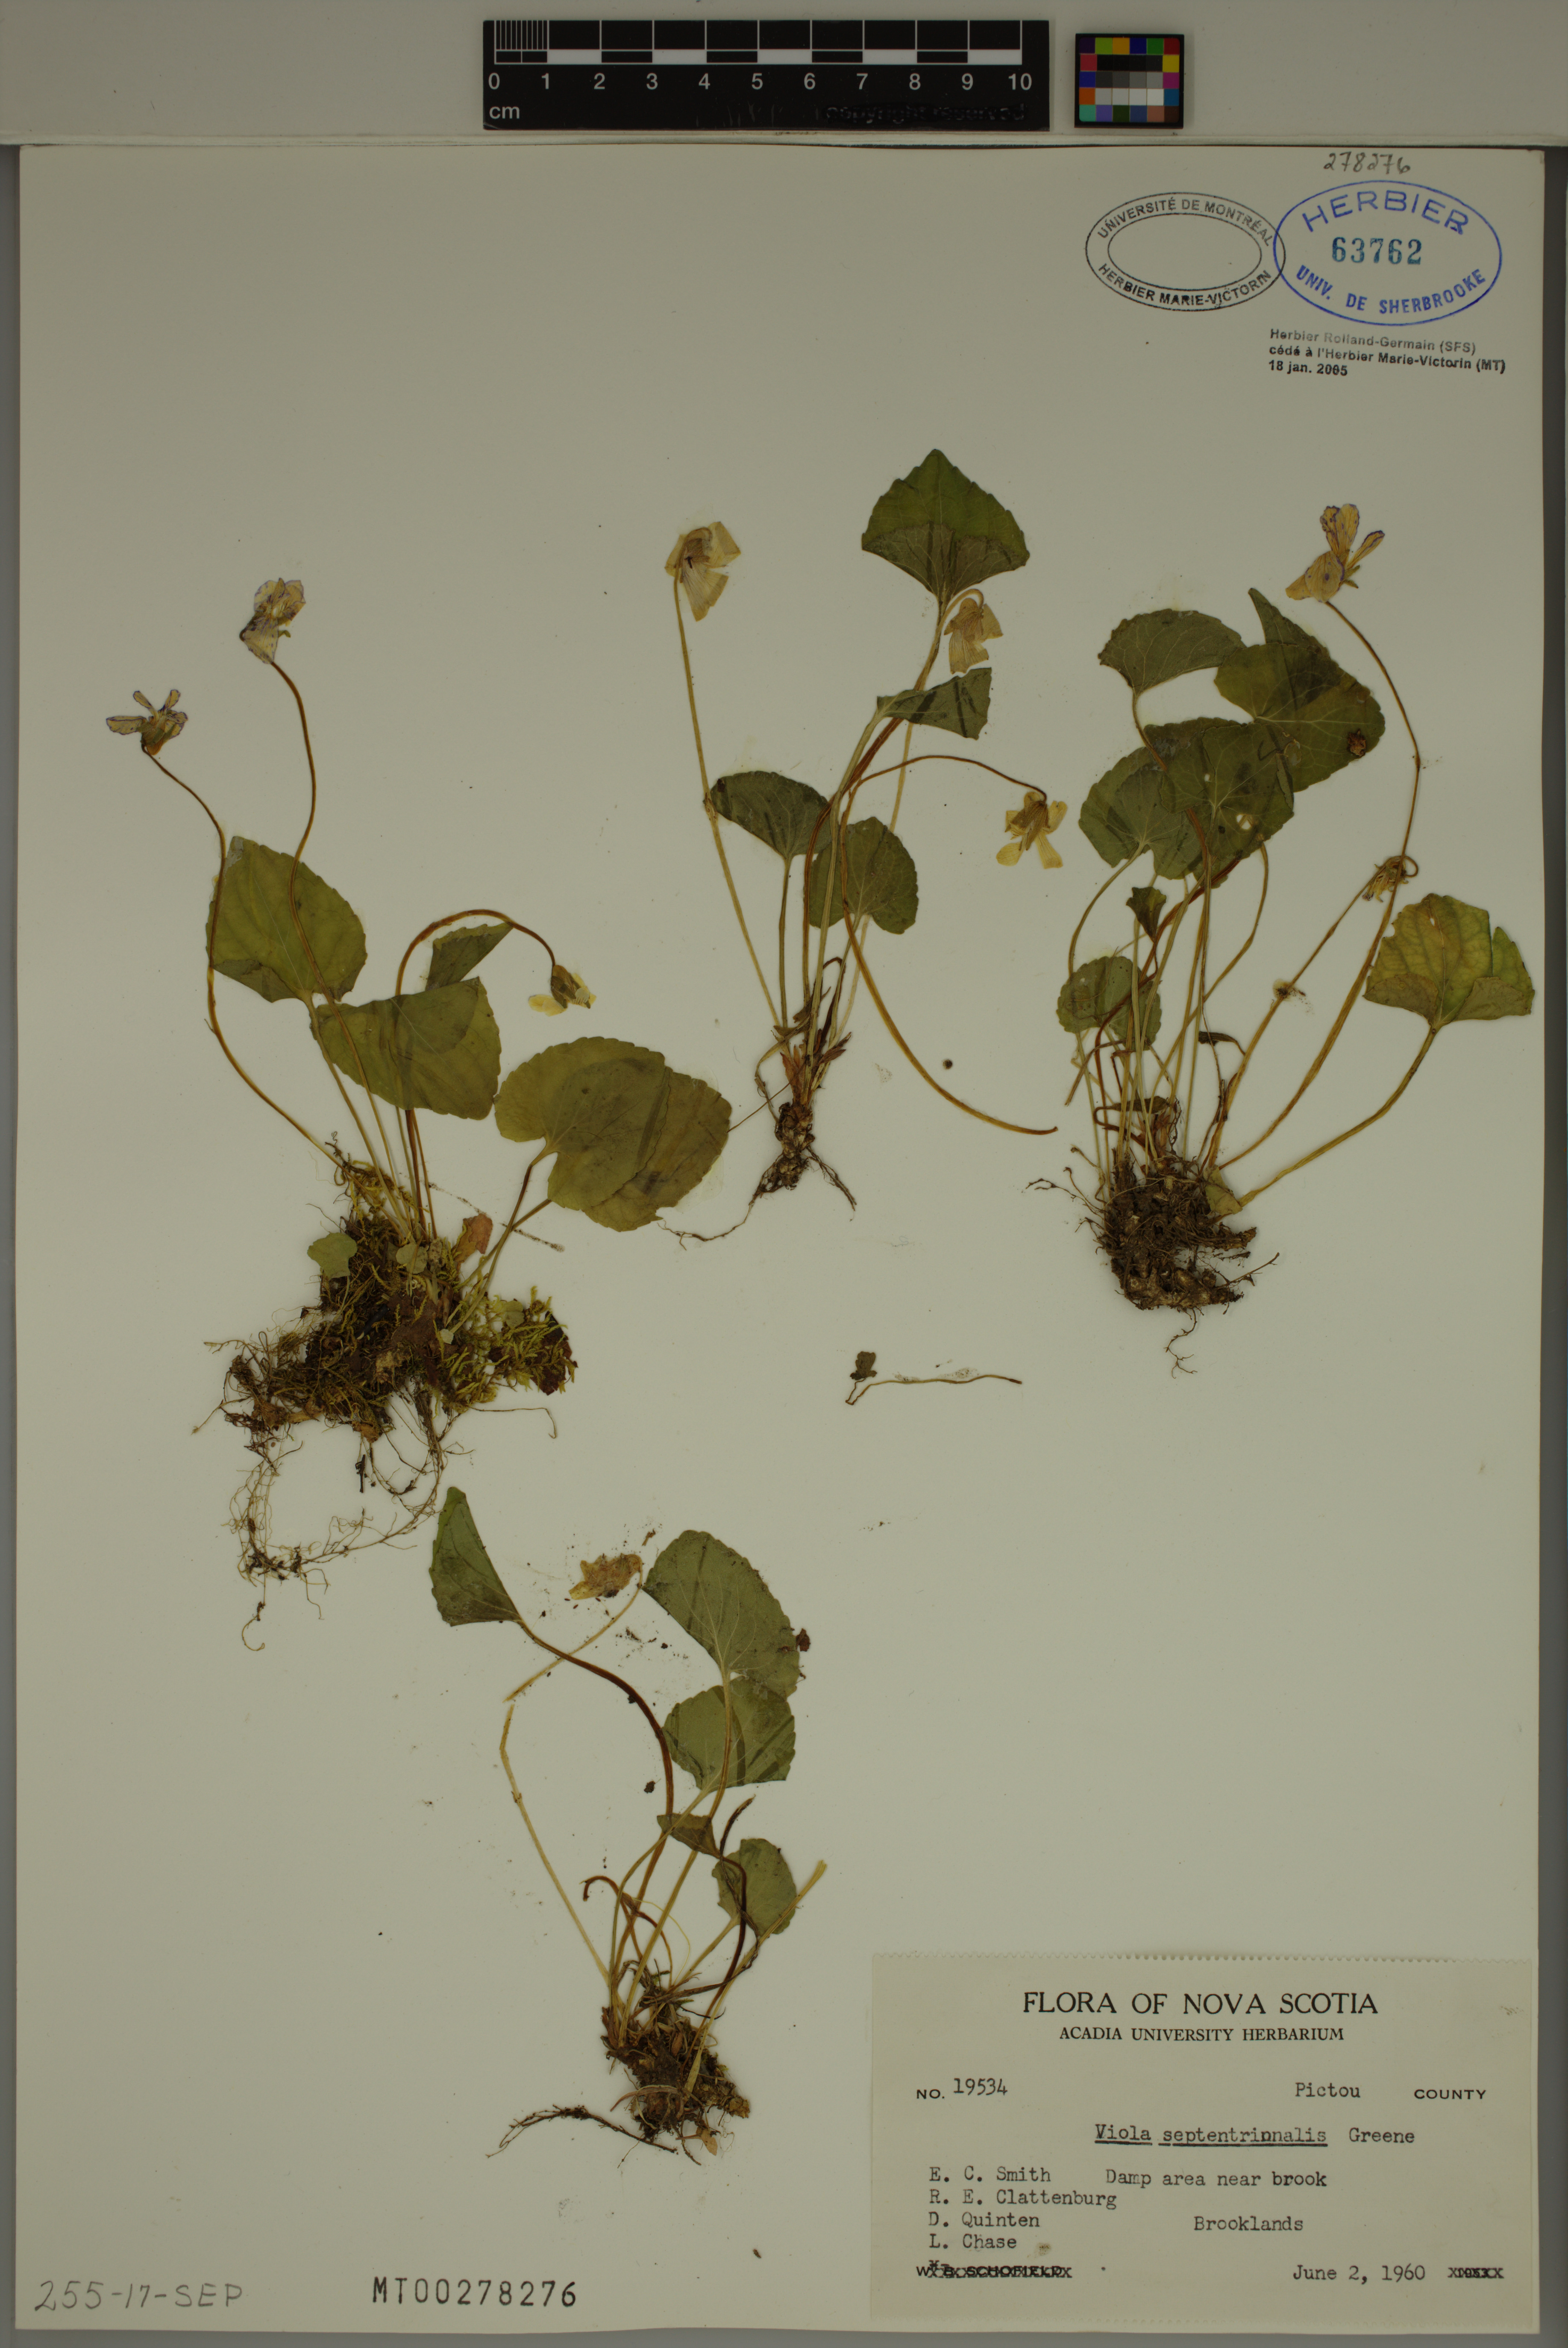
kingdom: Plantae
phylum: Tracheophyta
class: Magnoliopsida
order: Malpighiales
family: Violaceae
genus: Viola
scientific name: Viola septentrionalis
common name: Northern woodland violet
